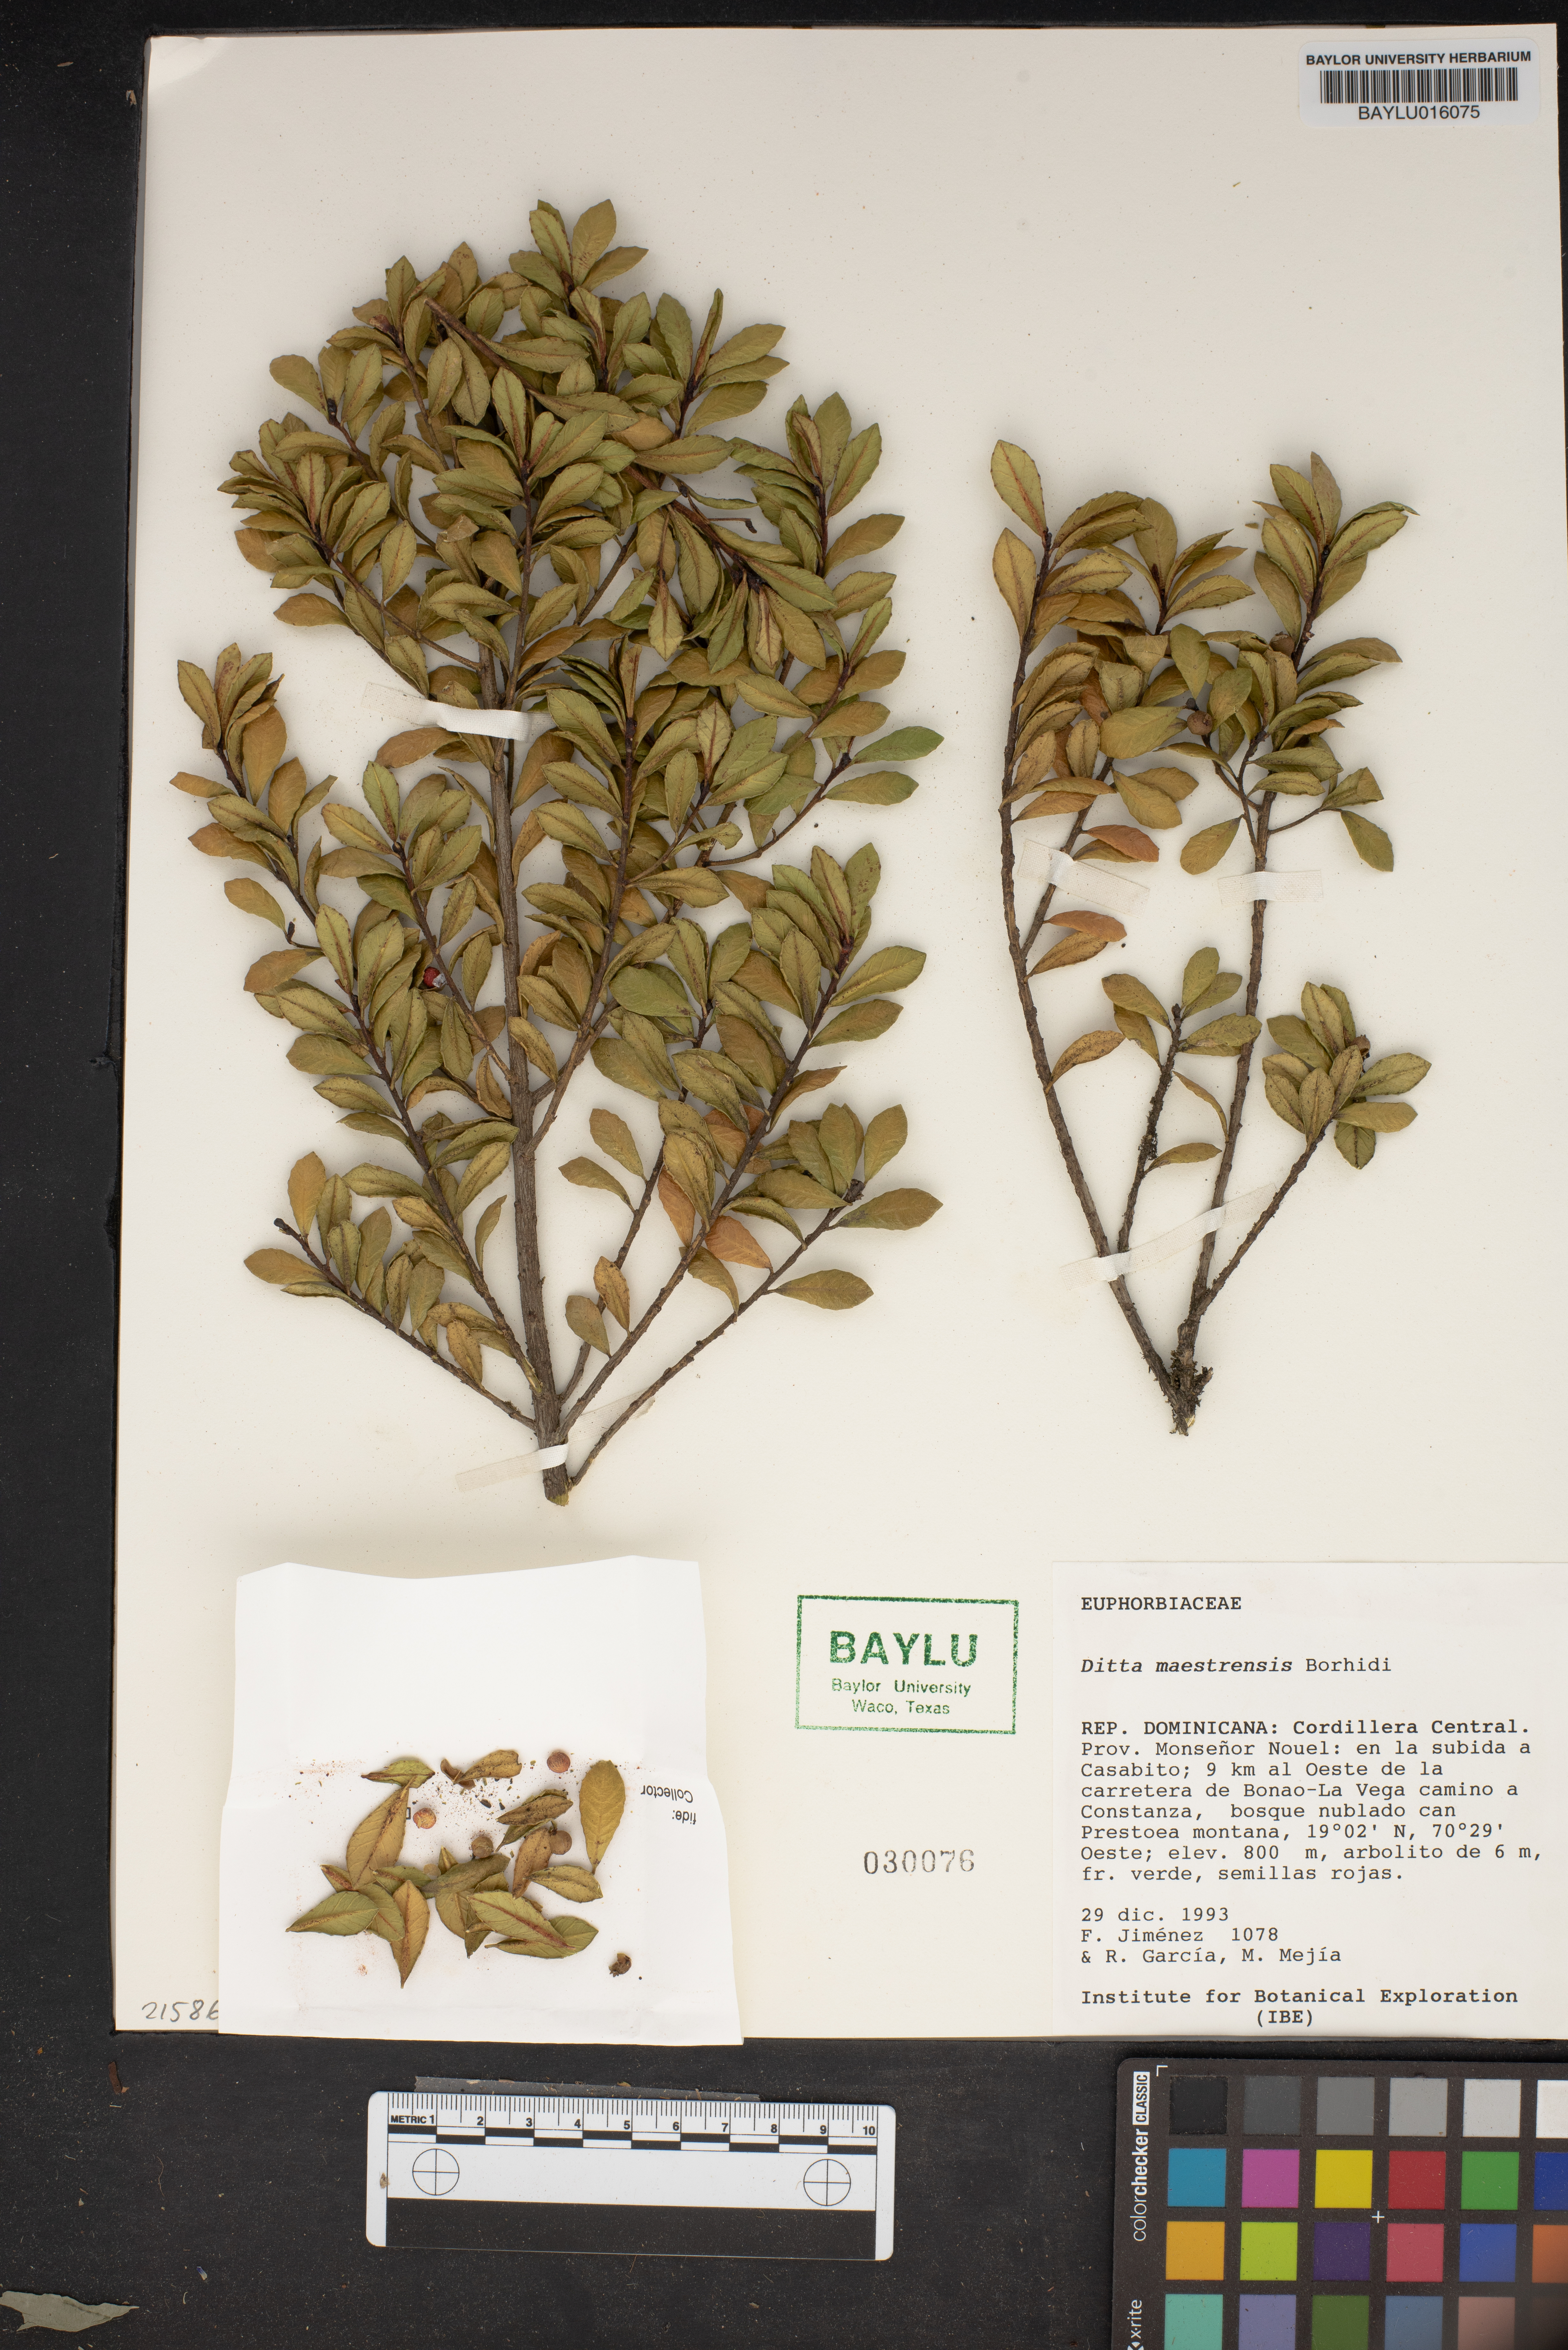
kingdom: Plantae
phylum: Tracheophyta
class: Magnoliopsida
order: Malpighiales
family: Euphorbiaceae
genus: Ditta
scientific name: Ditta maestrensis
